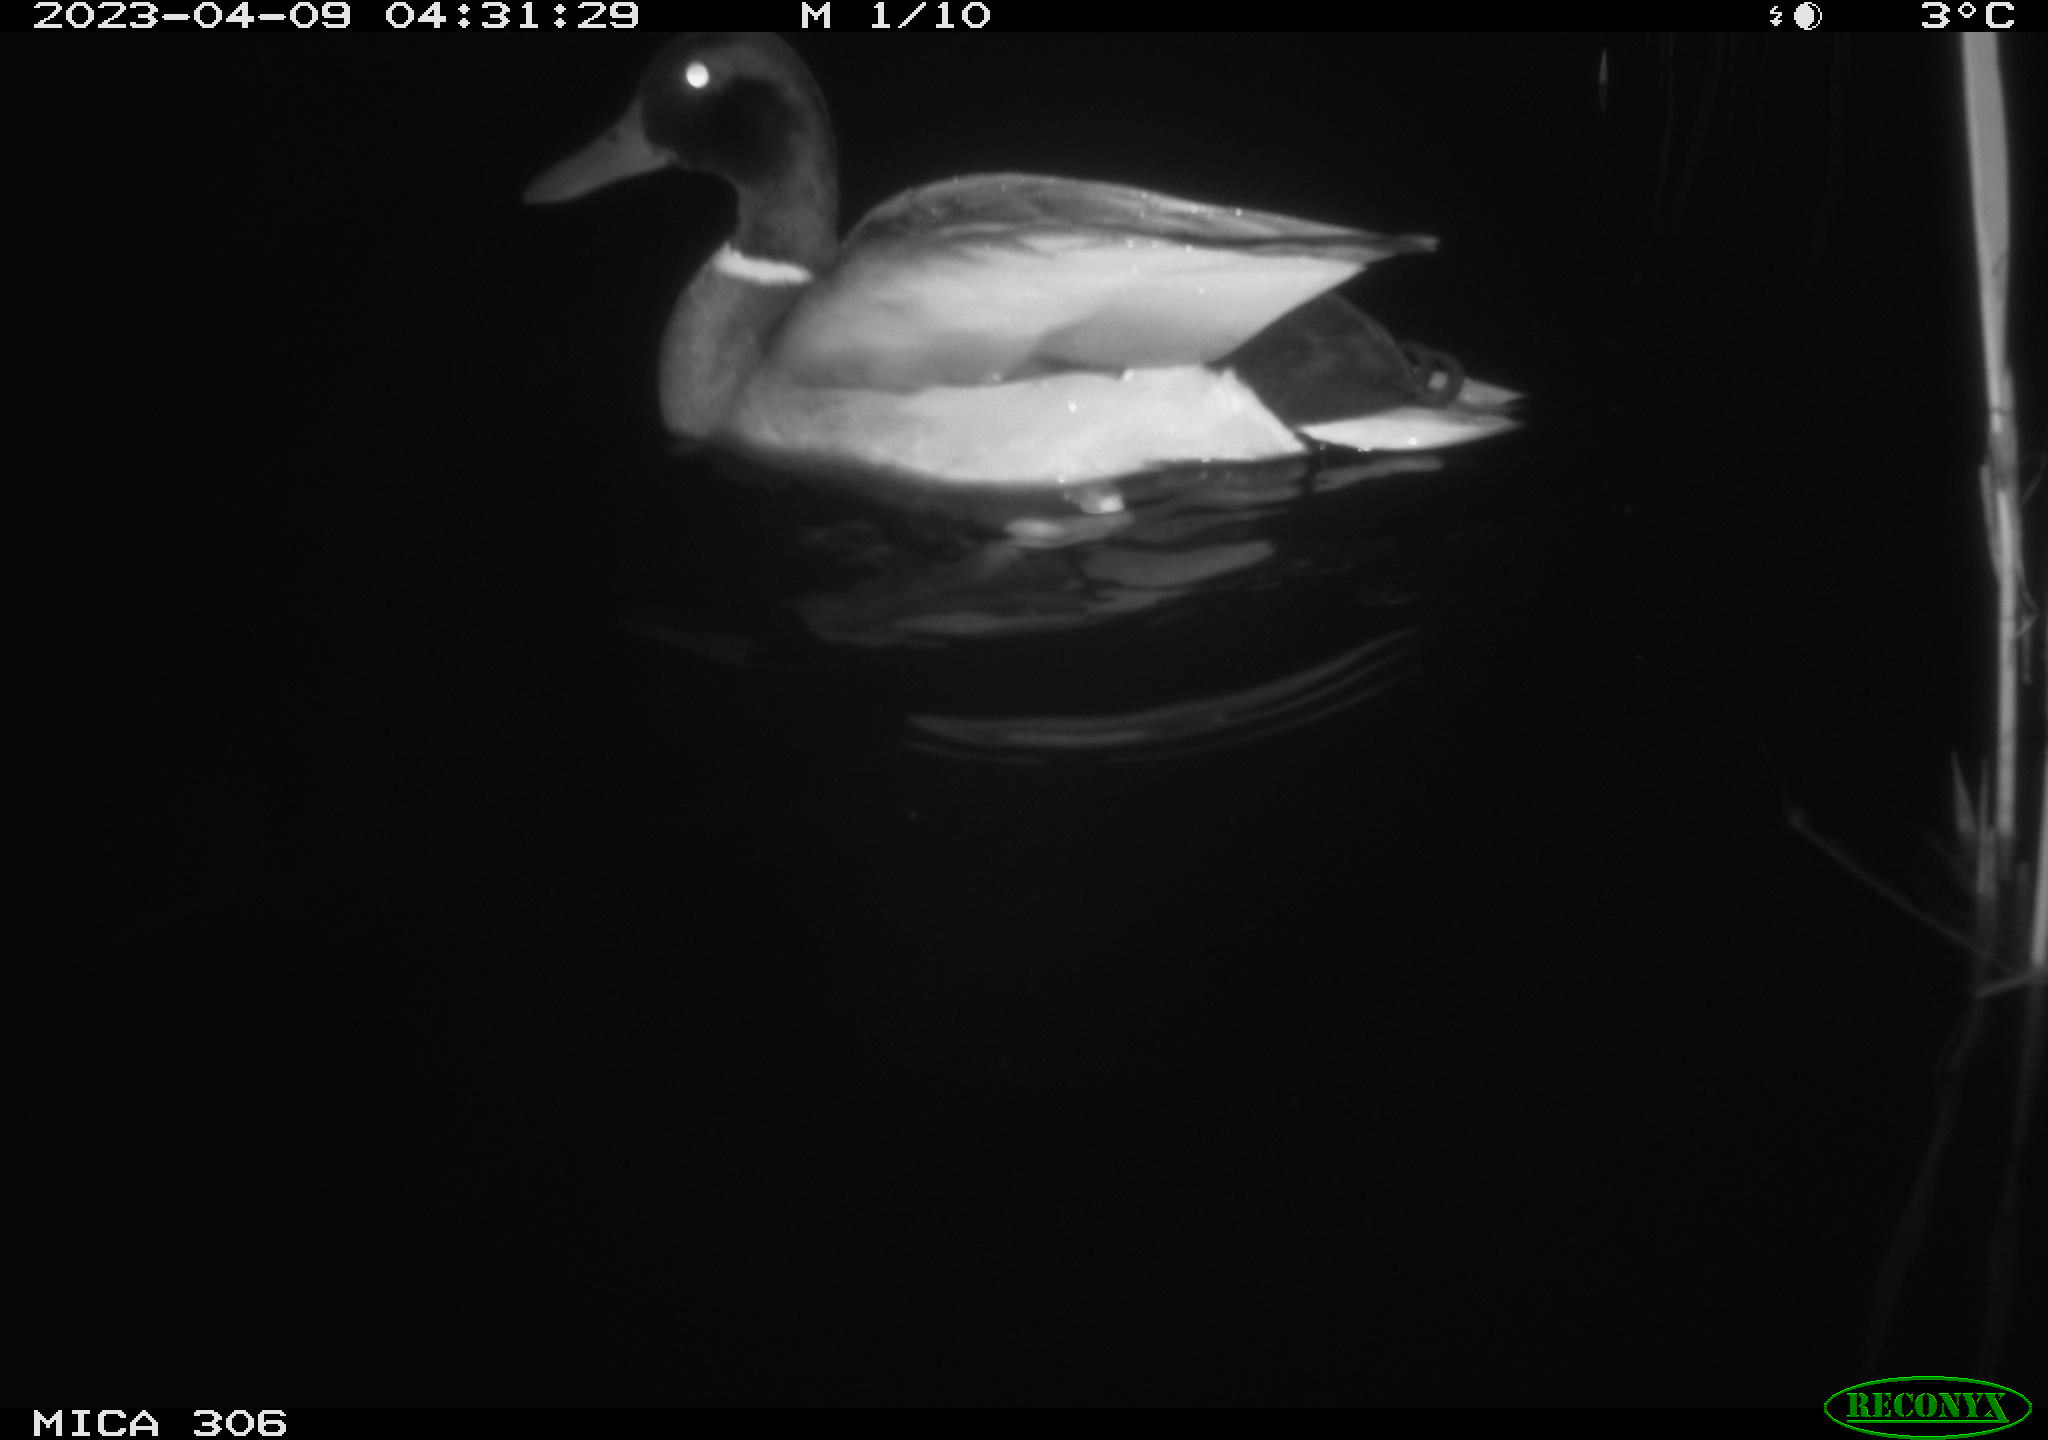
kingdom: Animalia
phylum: Chordata
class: Aves
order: Anseriformes
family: Anatidae
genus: Anas
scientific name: Anas
